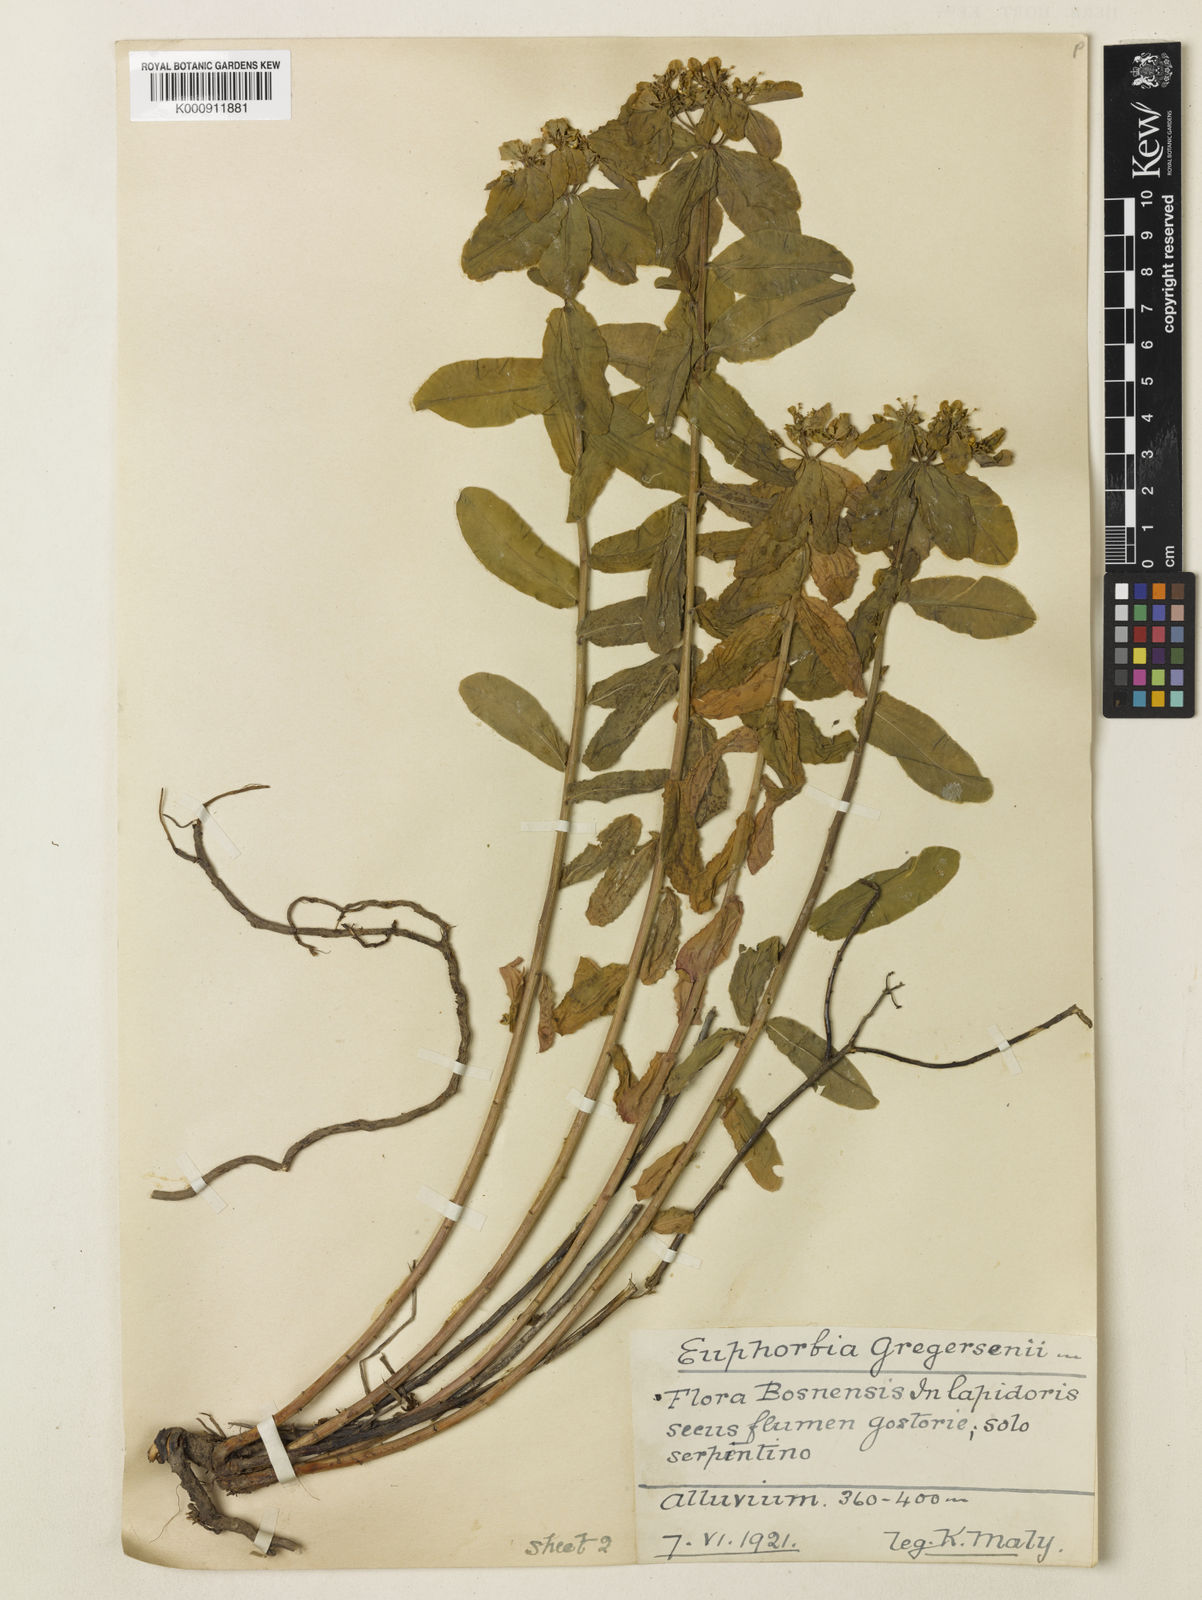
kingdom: Plantae
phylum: Tracheophyta
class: Magnoliopsida
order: Malpighiales
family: Euphorbiaceae
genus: Euphorbia
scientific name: Euphorbia
